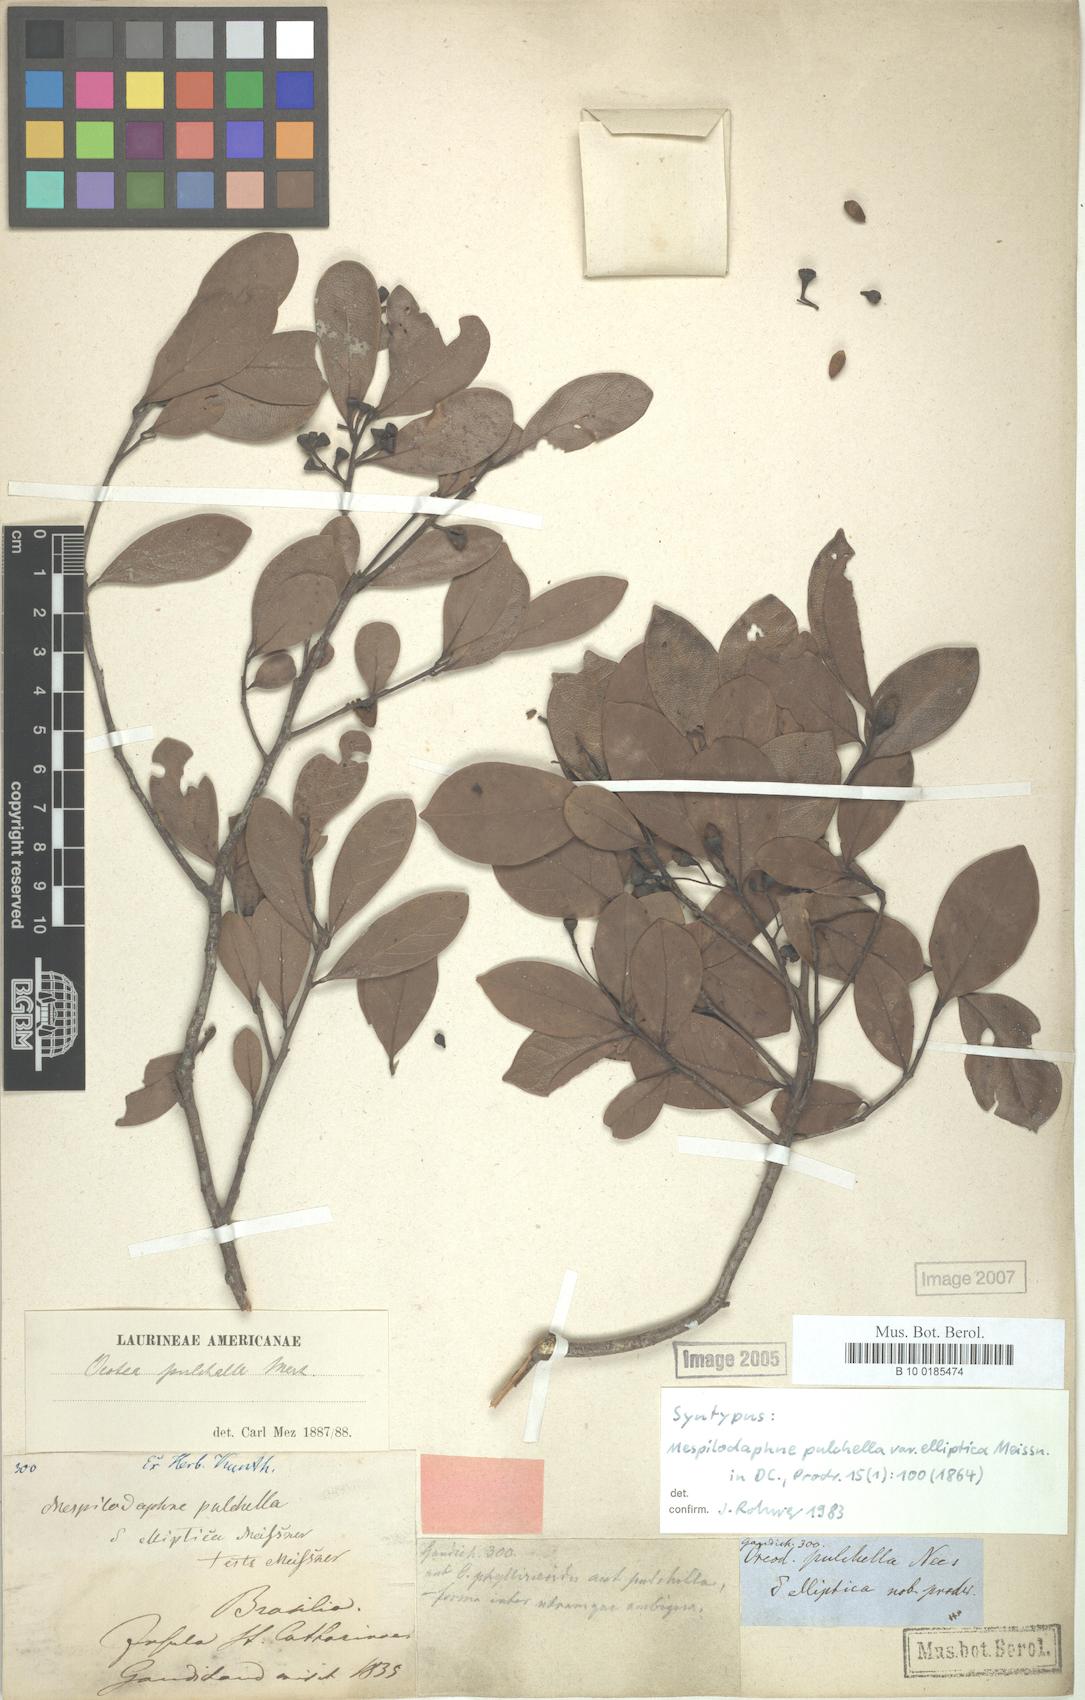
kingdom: Plantae
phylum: Tracheophyta
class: Magnoliopsida
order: Laurales
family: Lauraceae
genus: Mespilodaphne
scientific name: Mespilodaphne pulchella
